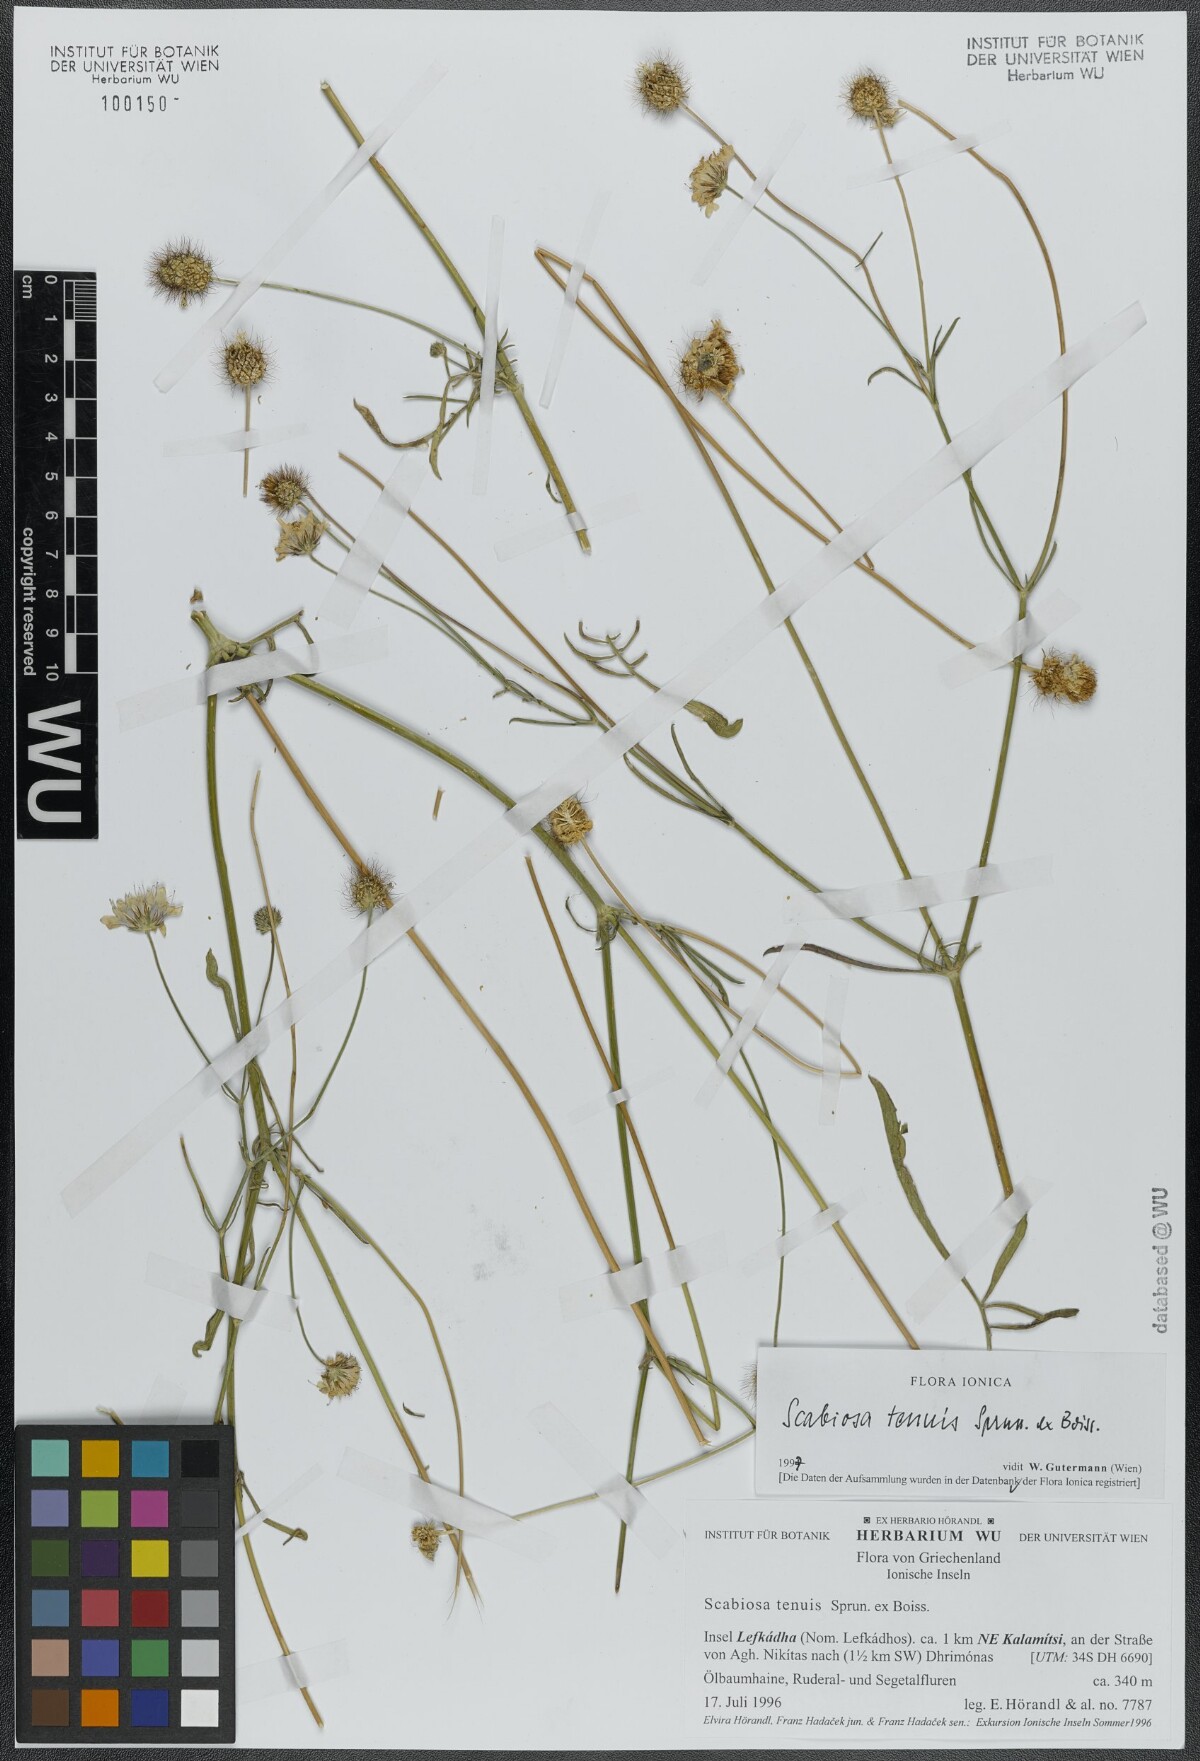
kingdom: Plantae
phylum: Tracheophyta
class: Magnoliopsida
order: Dipsacales
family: Caprifoliaceae
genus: Scabiosa
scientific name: Scabiosa tenuis
